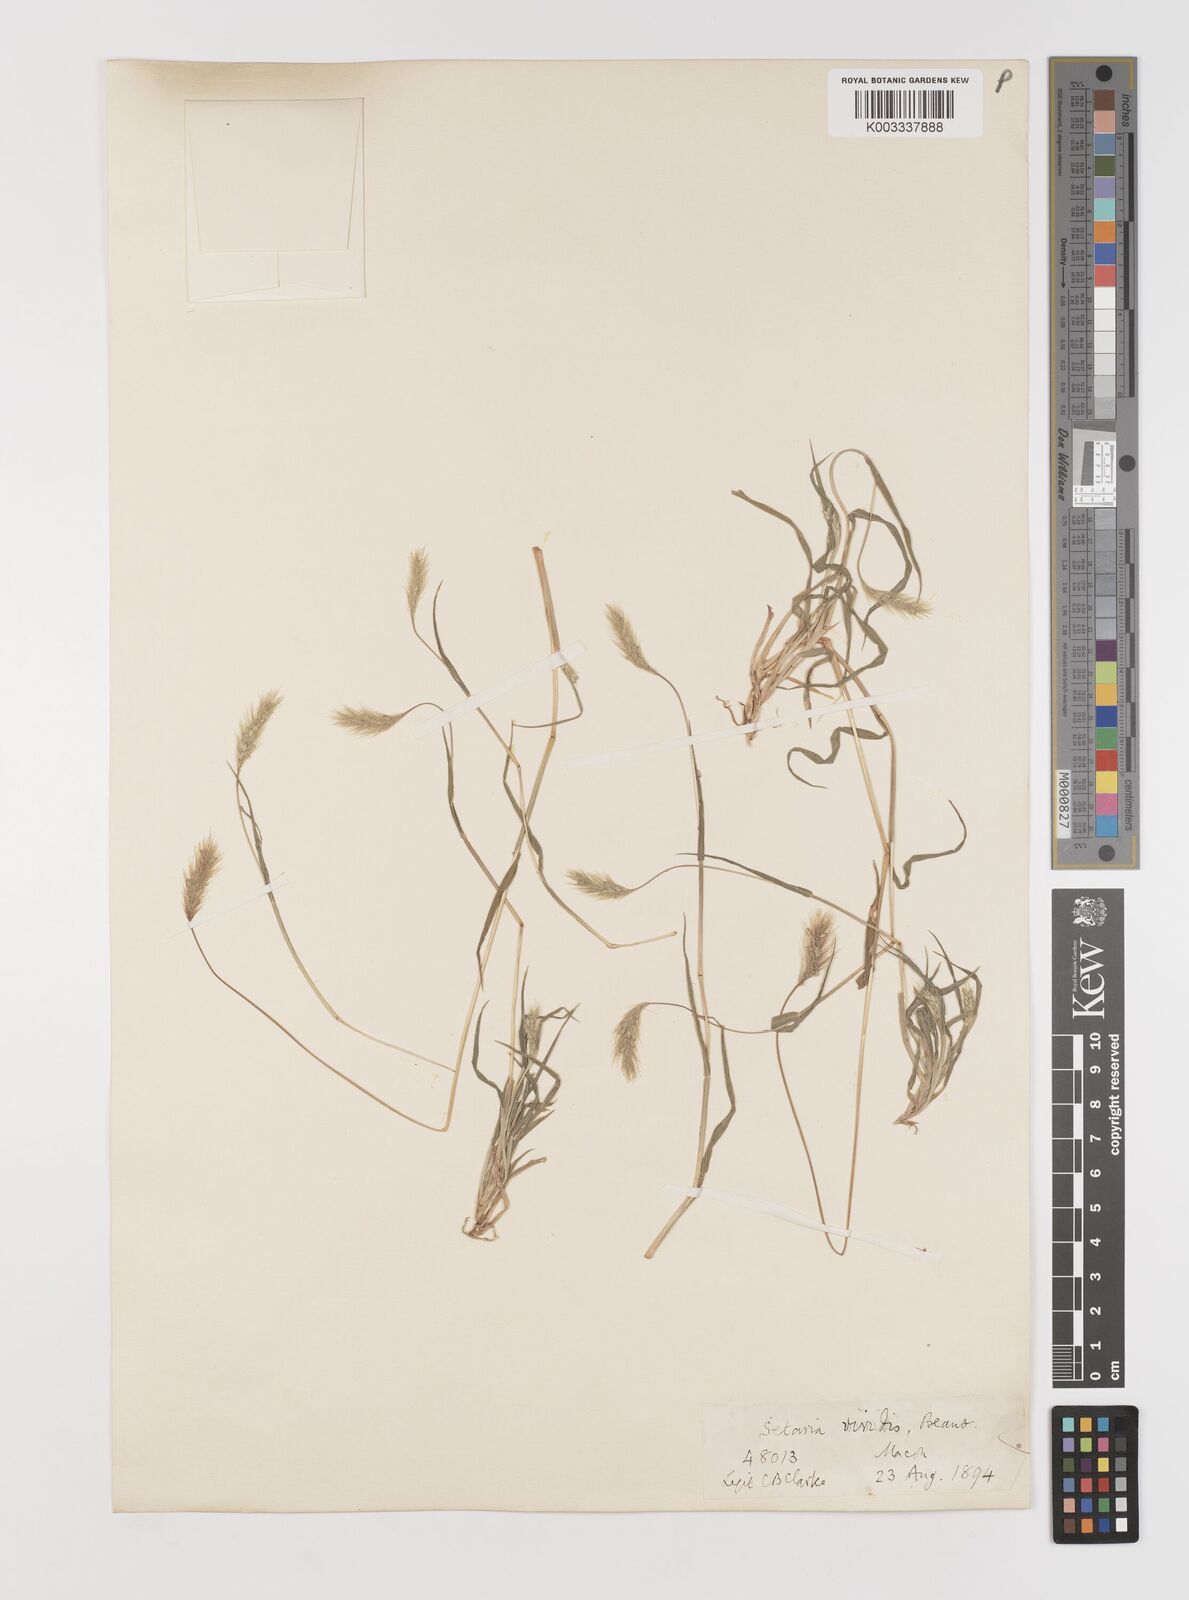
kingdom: Plantae
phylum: Tracheophyta
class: Liliopsida
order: Poales
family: Poaceae
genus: Setaria
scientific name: Setaria viridis
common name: Green bristlegrass
